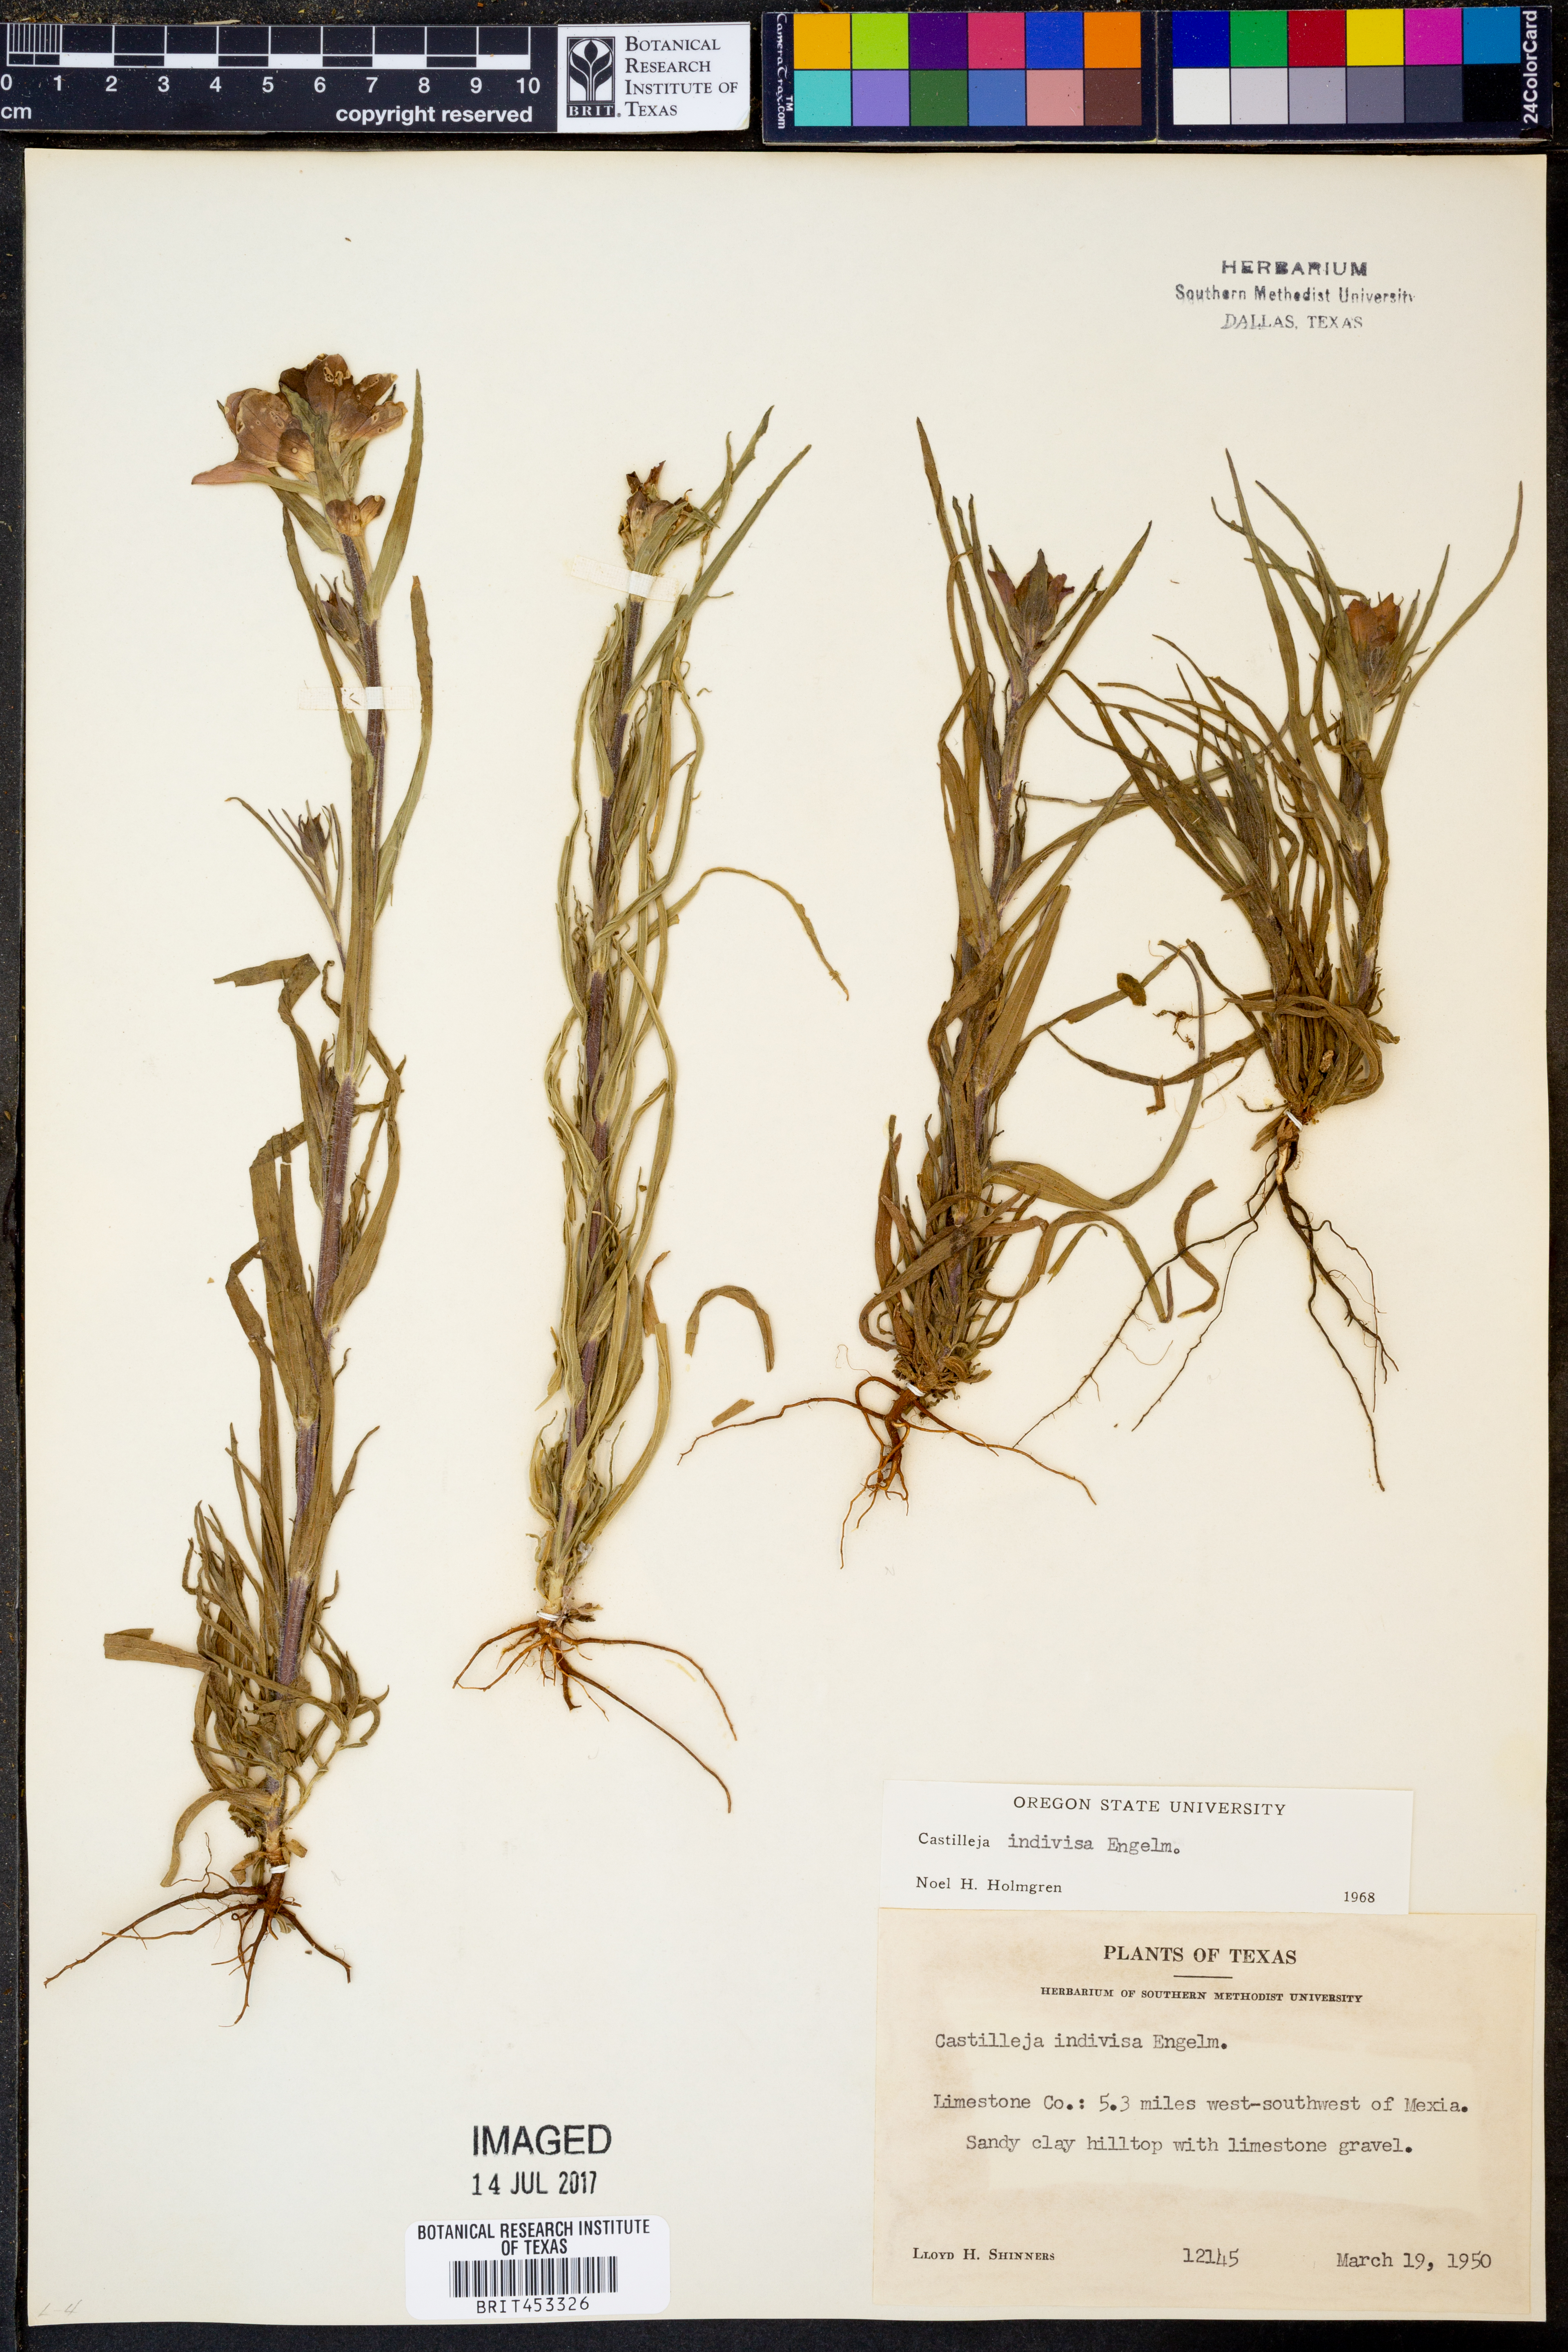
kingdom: Plantae
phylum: Tracheophyta
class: Magnoliopsida
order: Lamiales
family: Orobanchaceae
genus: Castilleja
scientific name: Castilleja indivisa
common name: Texas paintbrush
